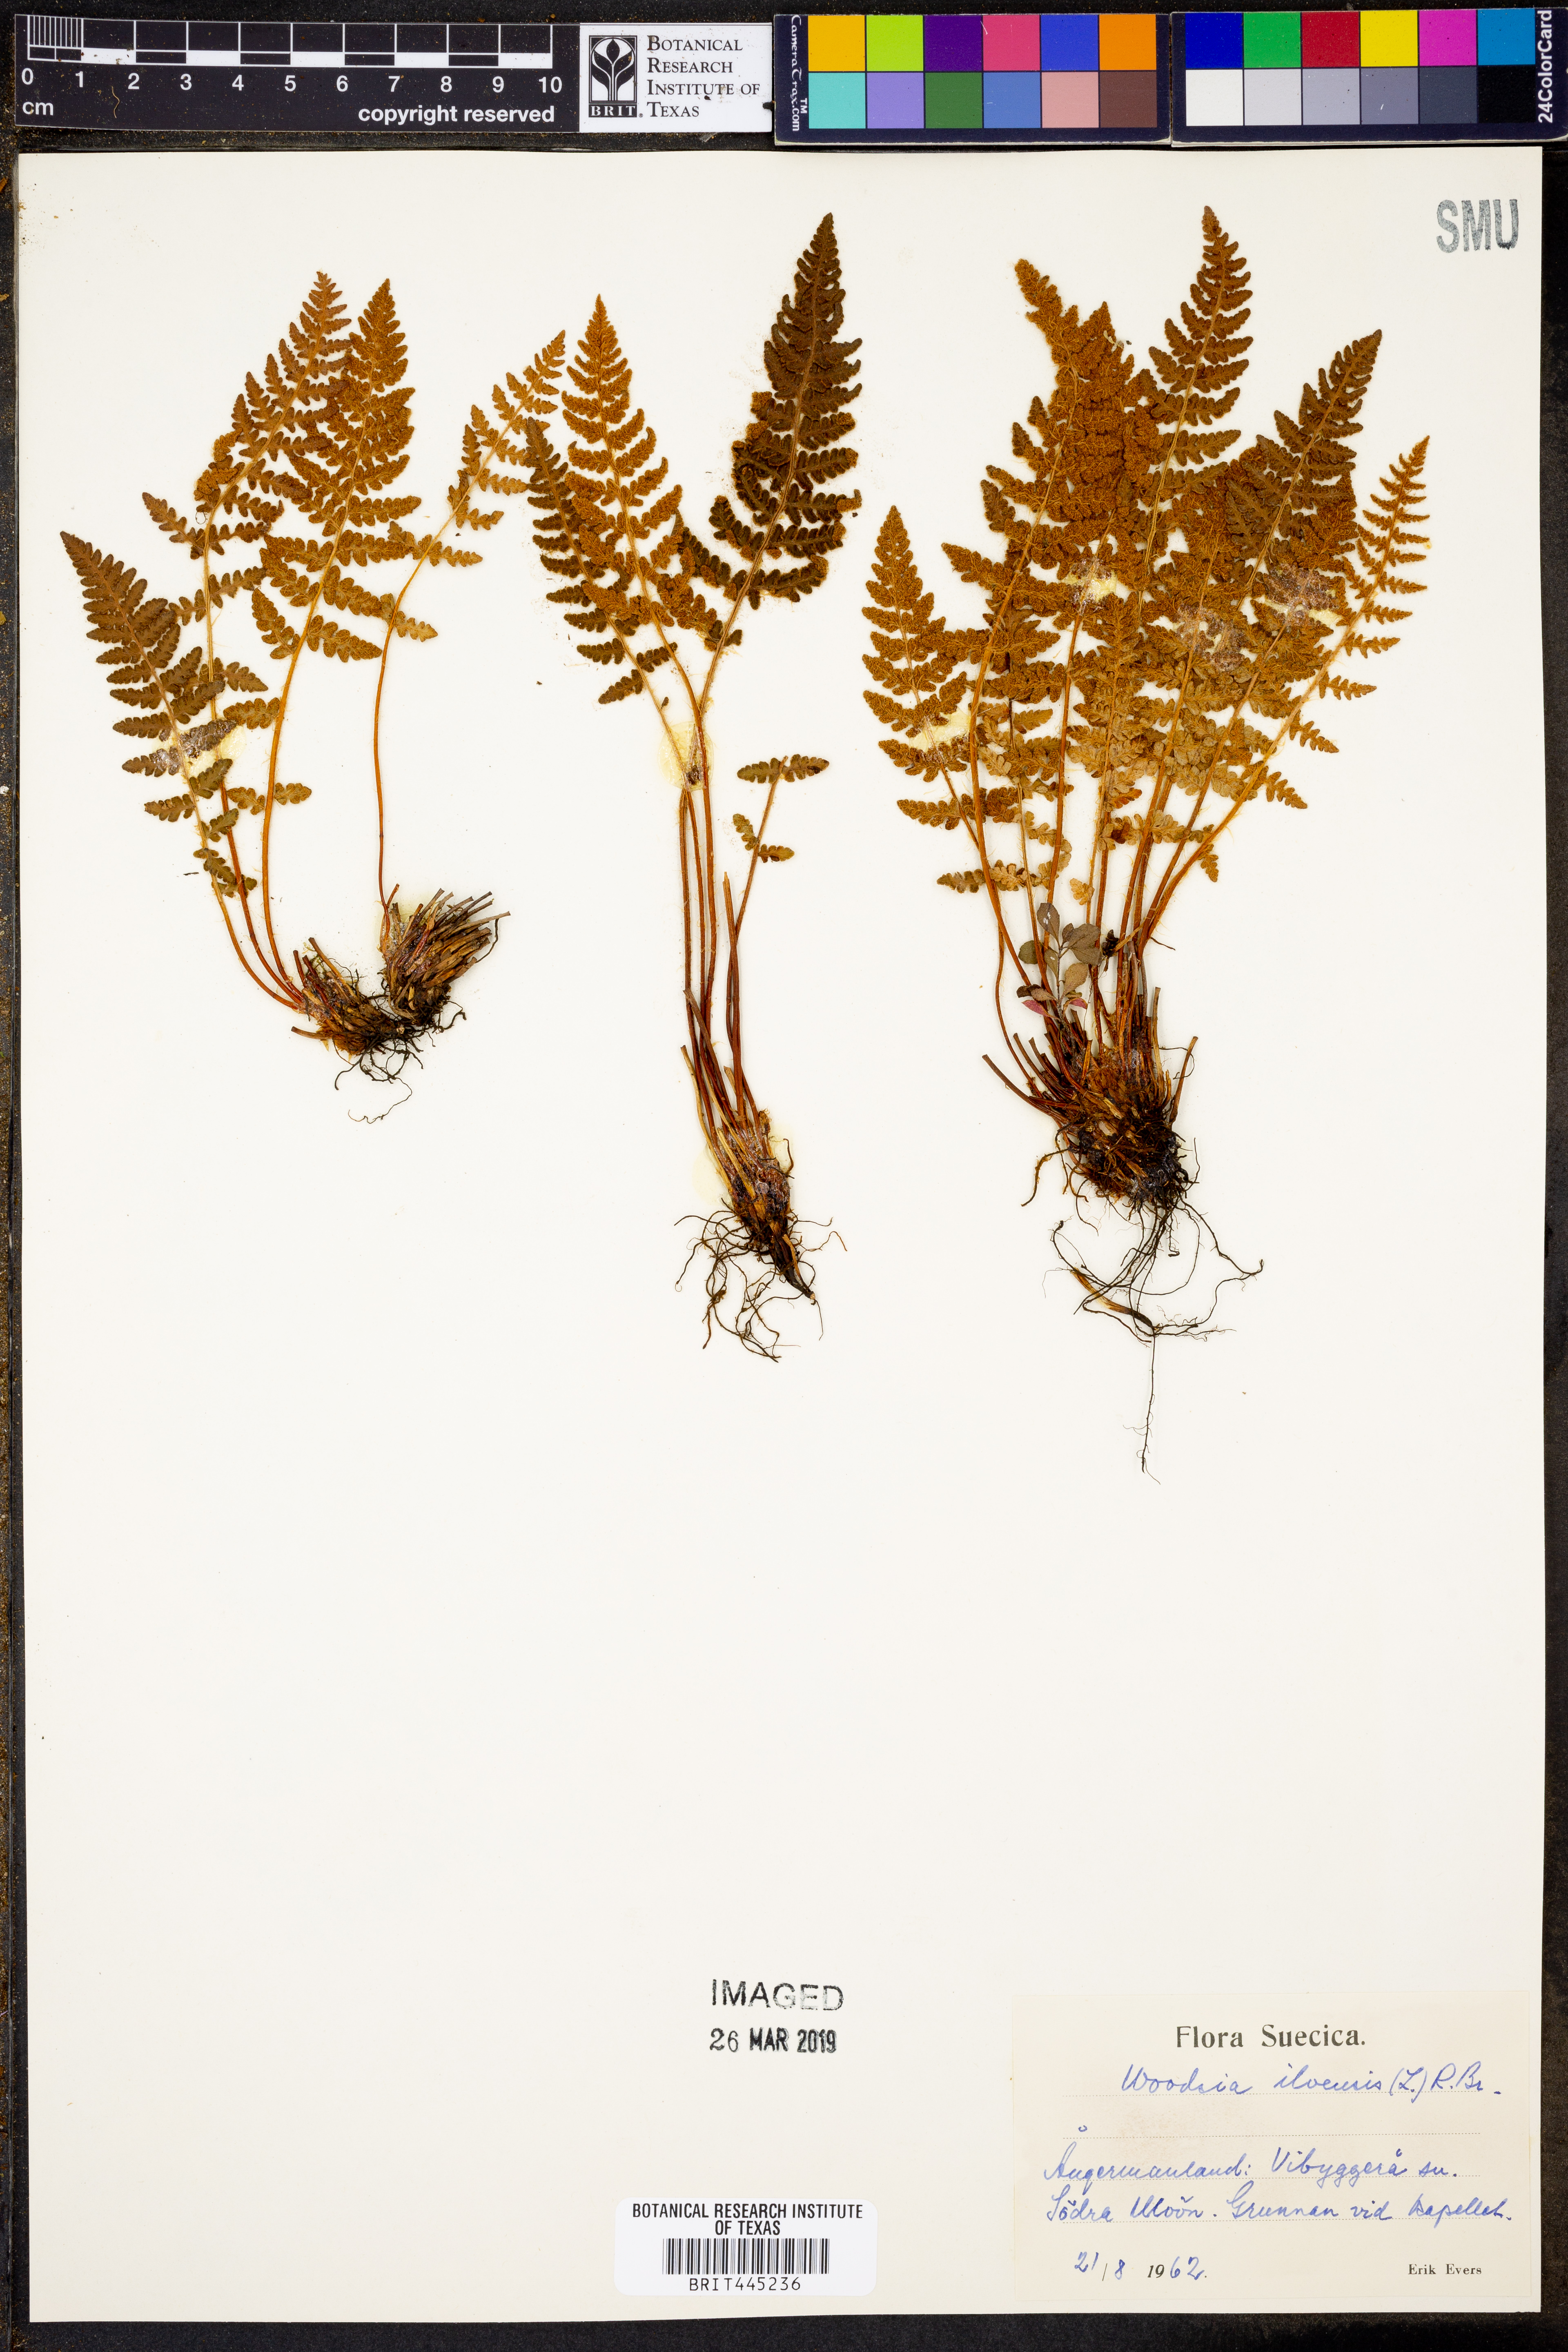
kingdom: Plantae
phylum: Tracheophyta
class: Polypodiopsida
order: Polypodiales
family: Woodsiaceae
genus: Woodsia
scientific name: Woodsia ilvensis
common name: Fragrant woodsia
